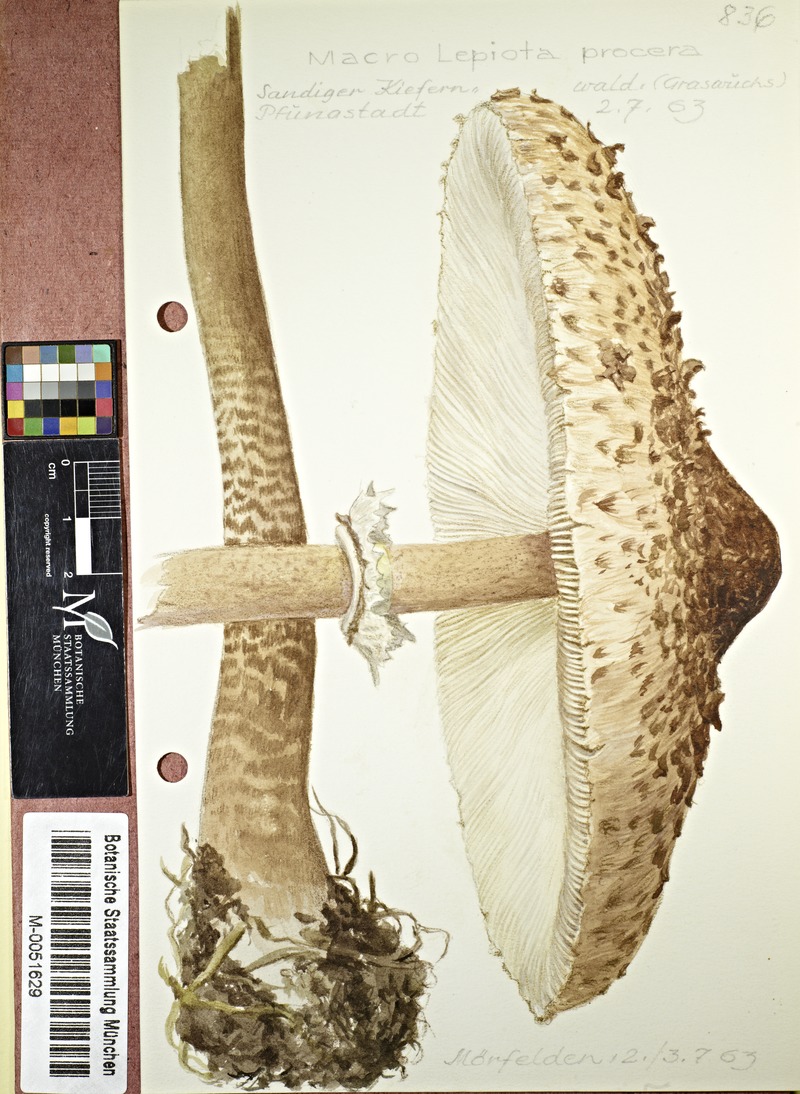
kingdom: Fungi
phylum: Basidiomycota
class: Agaricomycetes
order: Agaricales
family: Agaricaceae
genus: Macrolepiota
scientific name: Macrolepiota procera
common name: Parasol
